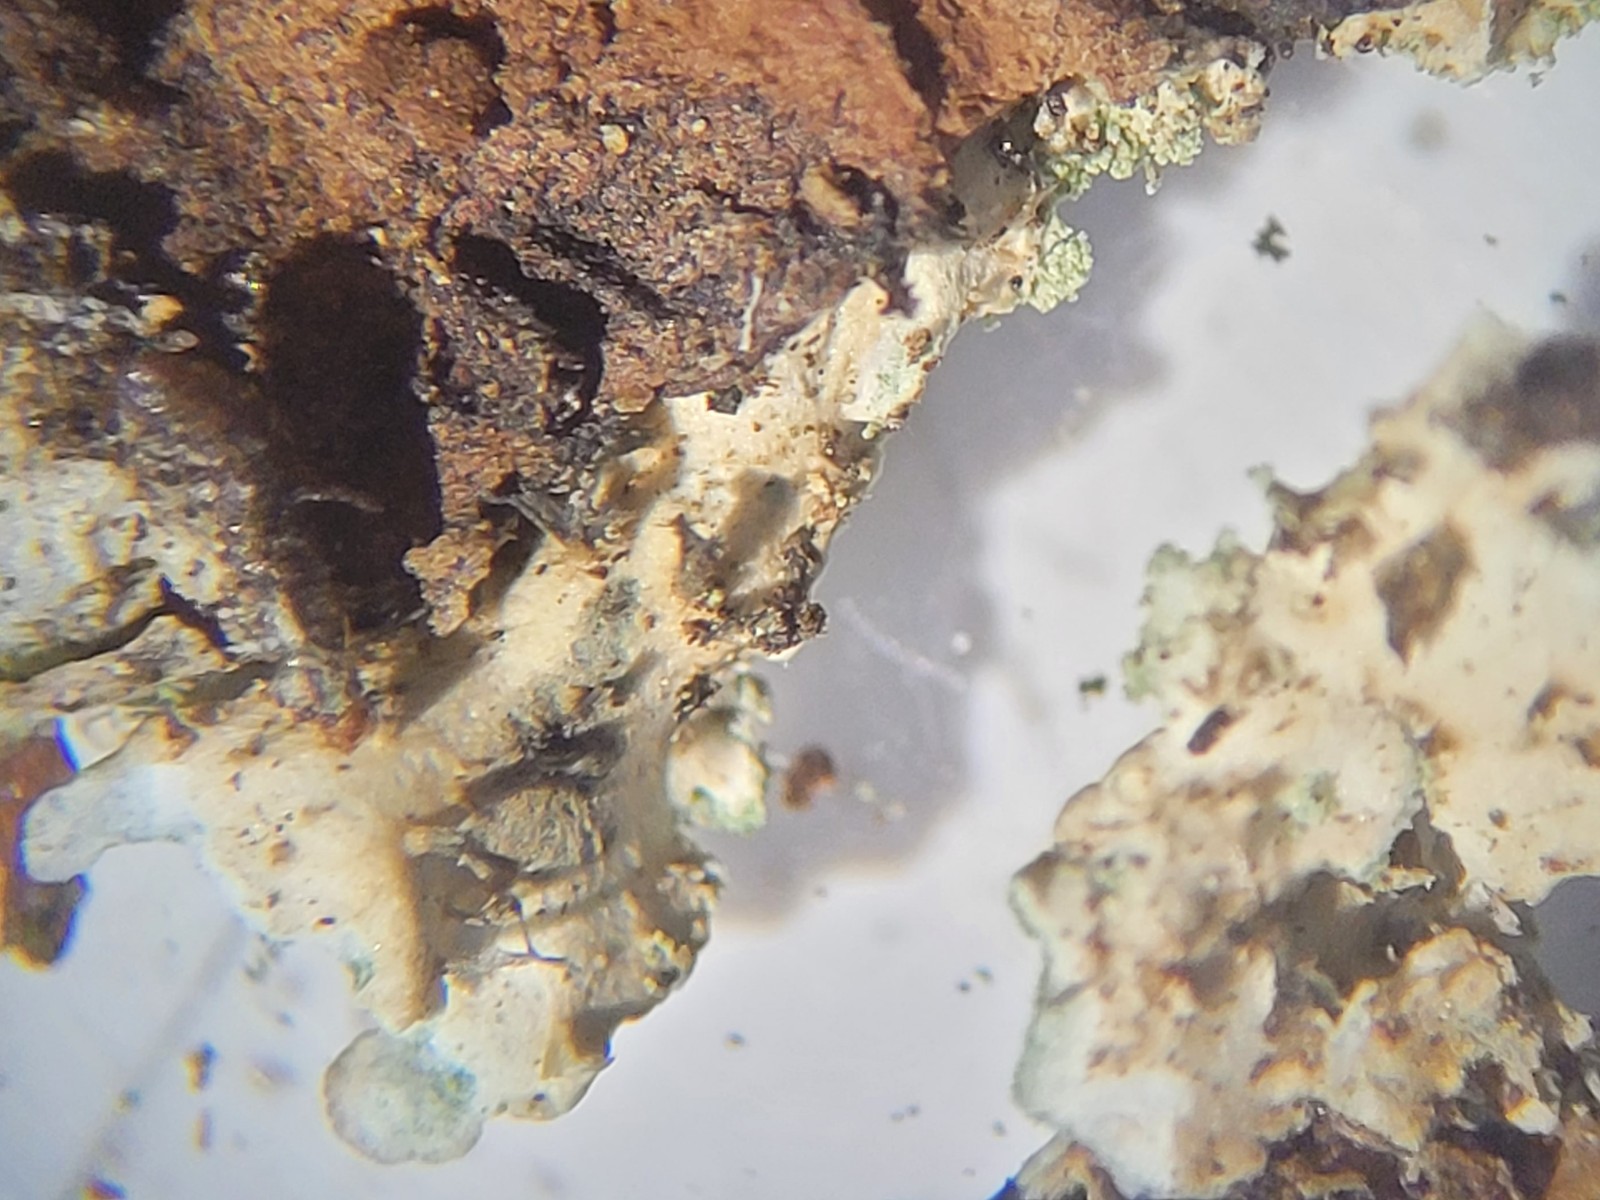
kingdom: Fungi
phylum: Ascomycota
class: Lecanoromycetes
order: Caliciales
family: Physciaceae
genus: Poeltonia
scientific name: Poeltonia grisea
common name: hvidgrå dugrosetlav
